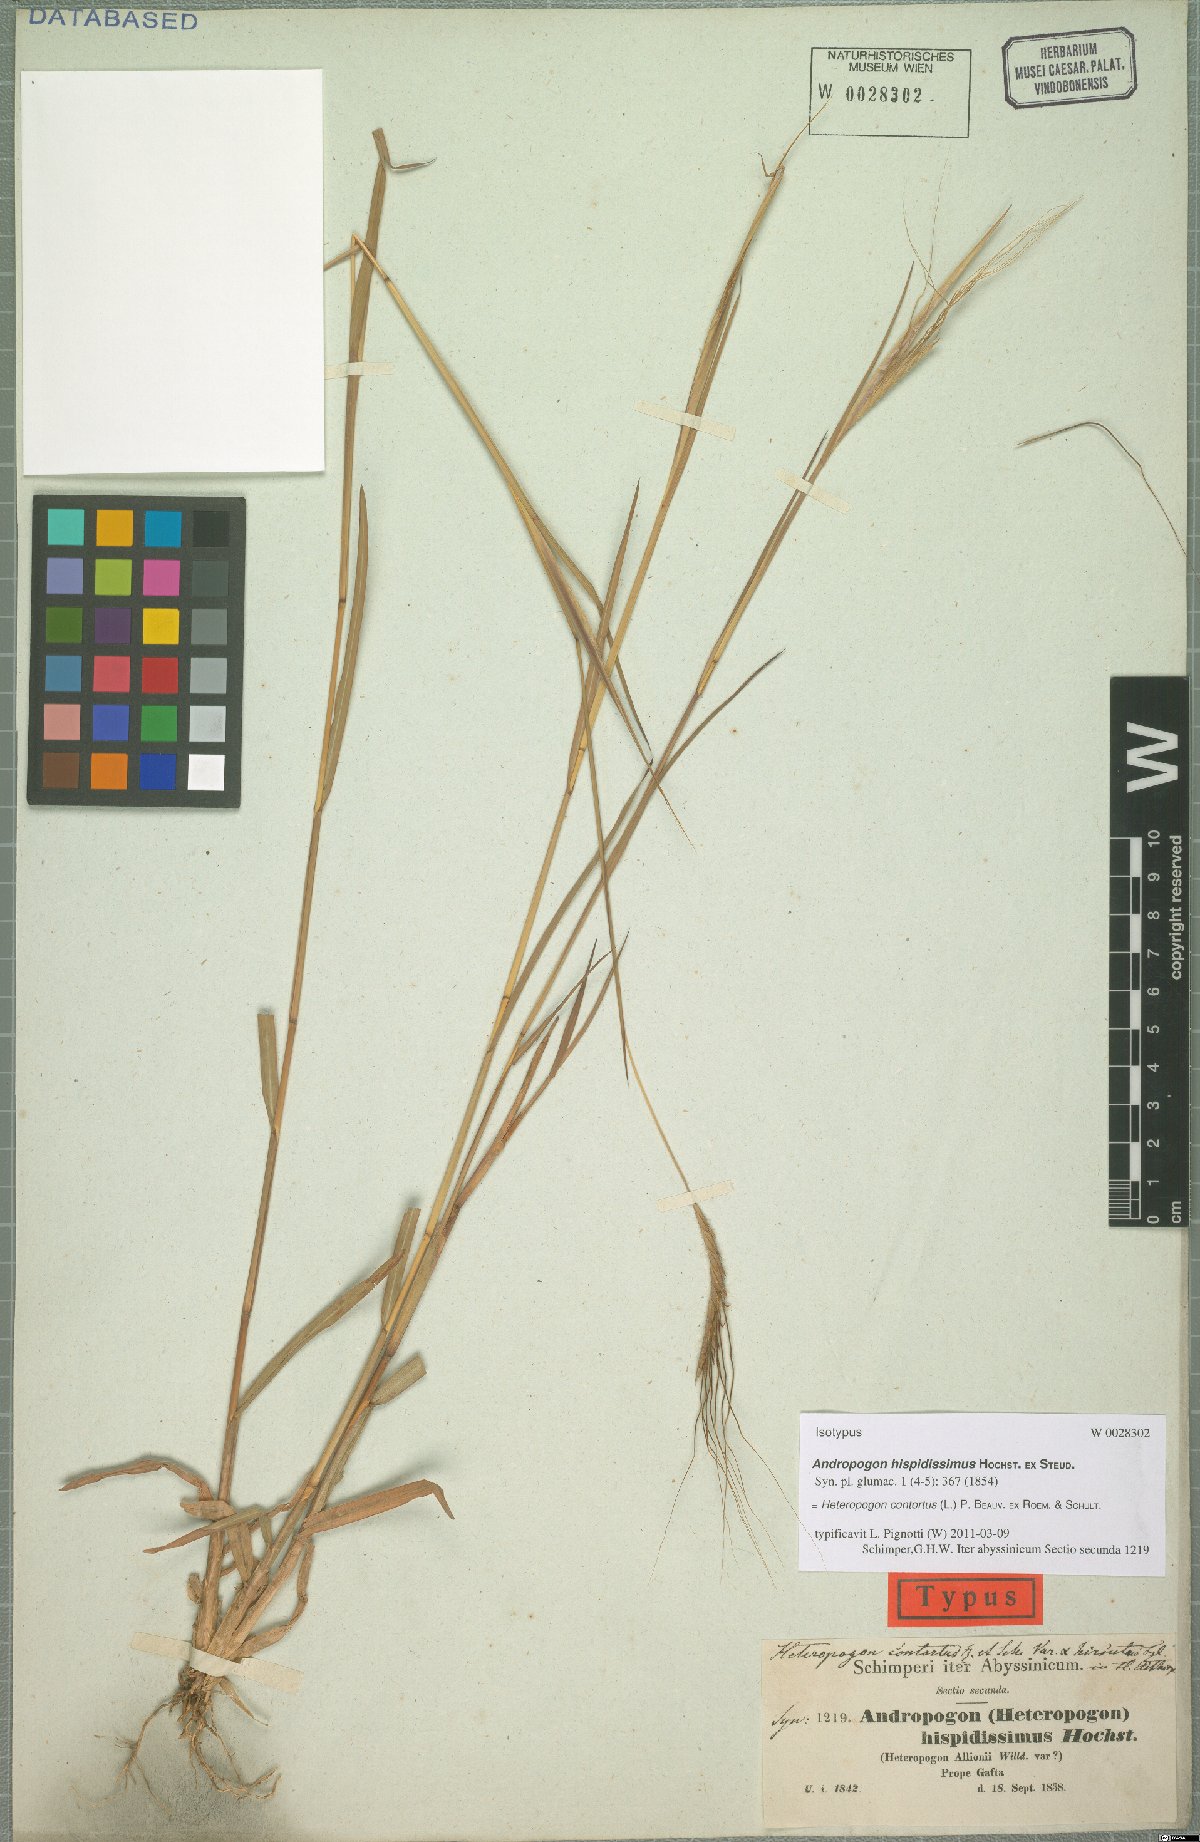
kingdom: Plantae
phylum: Tracheophyta
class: Liliopsida
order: Poales
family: Poaceae
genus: Heteropogon
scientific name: Heteropogon contortus
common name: Tanglehead
